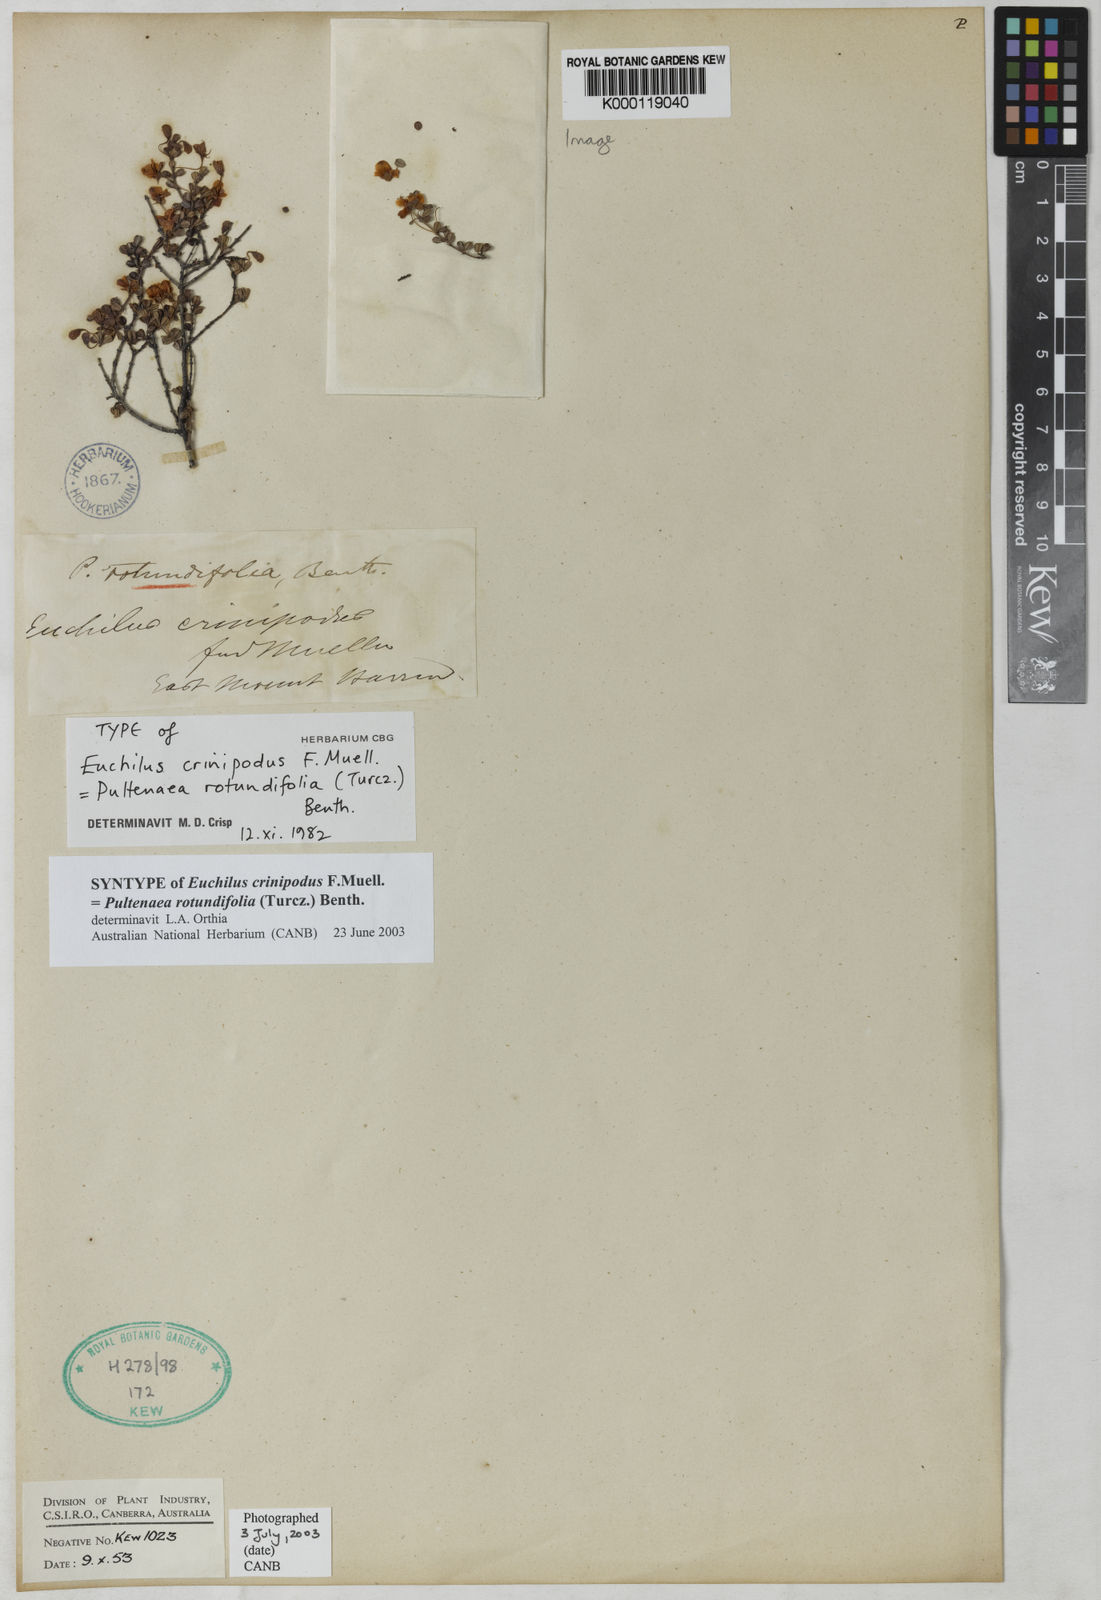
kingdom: Plantae
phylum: Tracheophyta
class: Magnoliopsida
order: Fabales
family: Fabaceae
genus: Pultenaea
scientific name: Pultenaea rotundifolia
